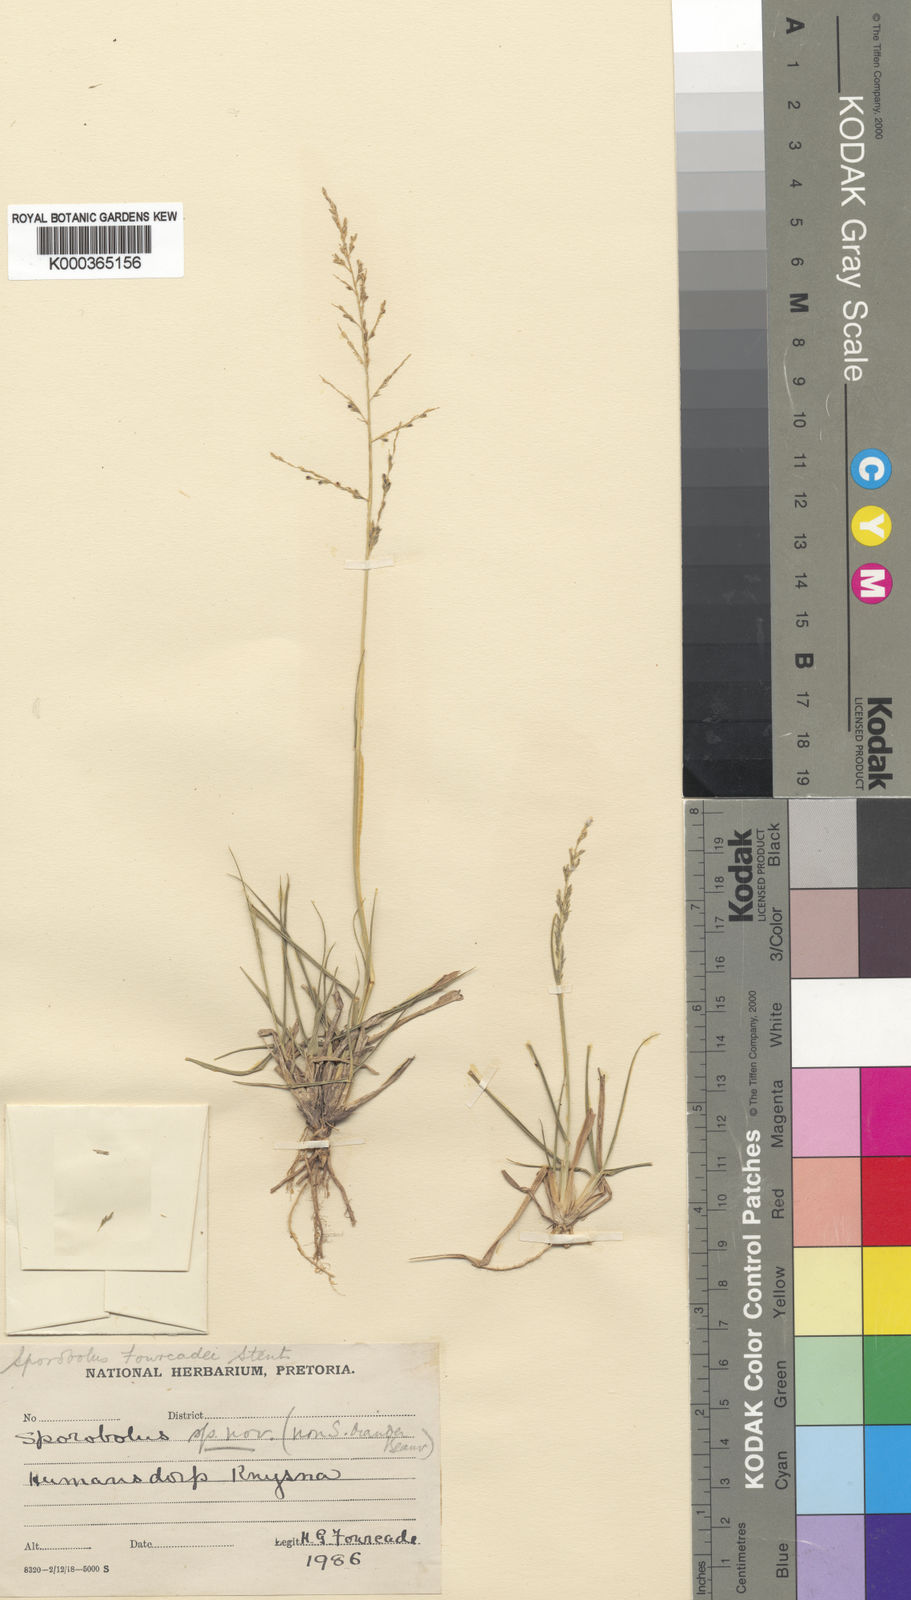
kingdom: Plantae
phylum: Tracheophyta
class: Liliopsida
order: Poales
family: Poaceae
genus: Sporobolus
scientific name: Sporobolus fourcadei
